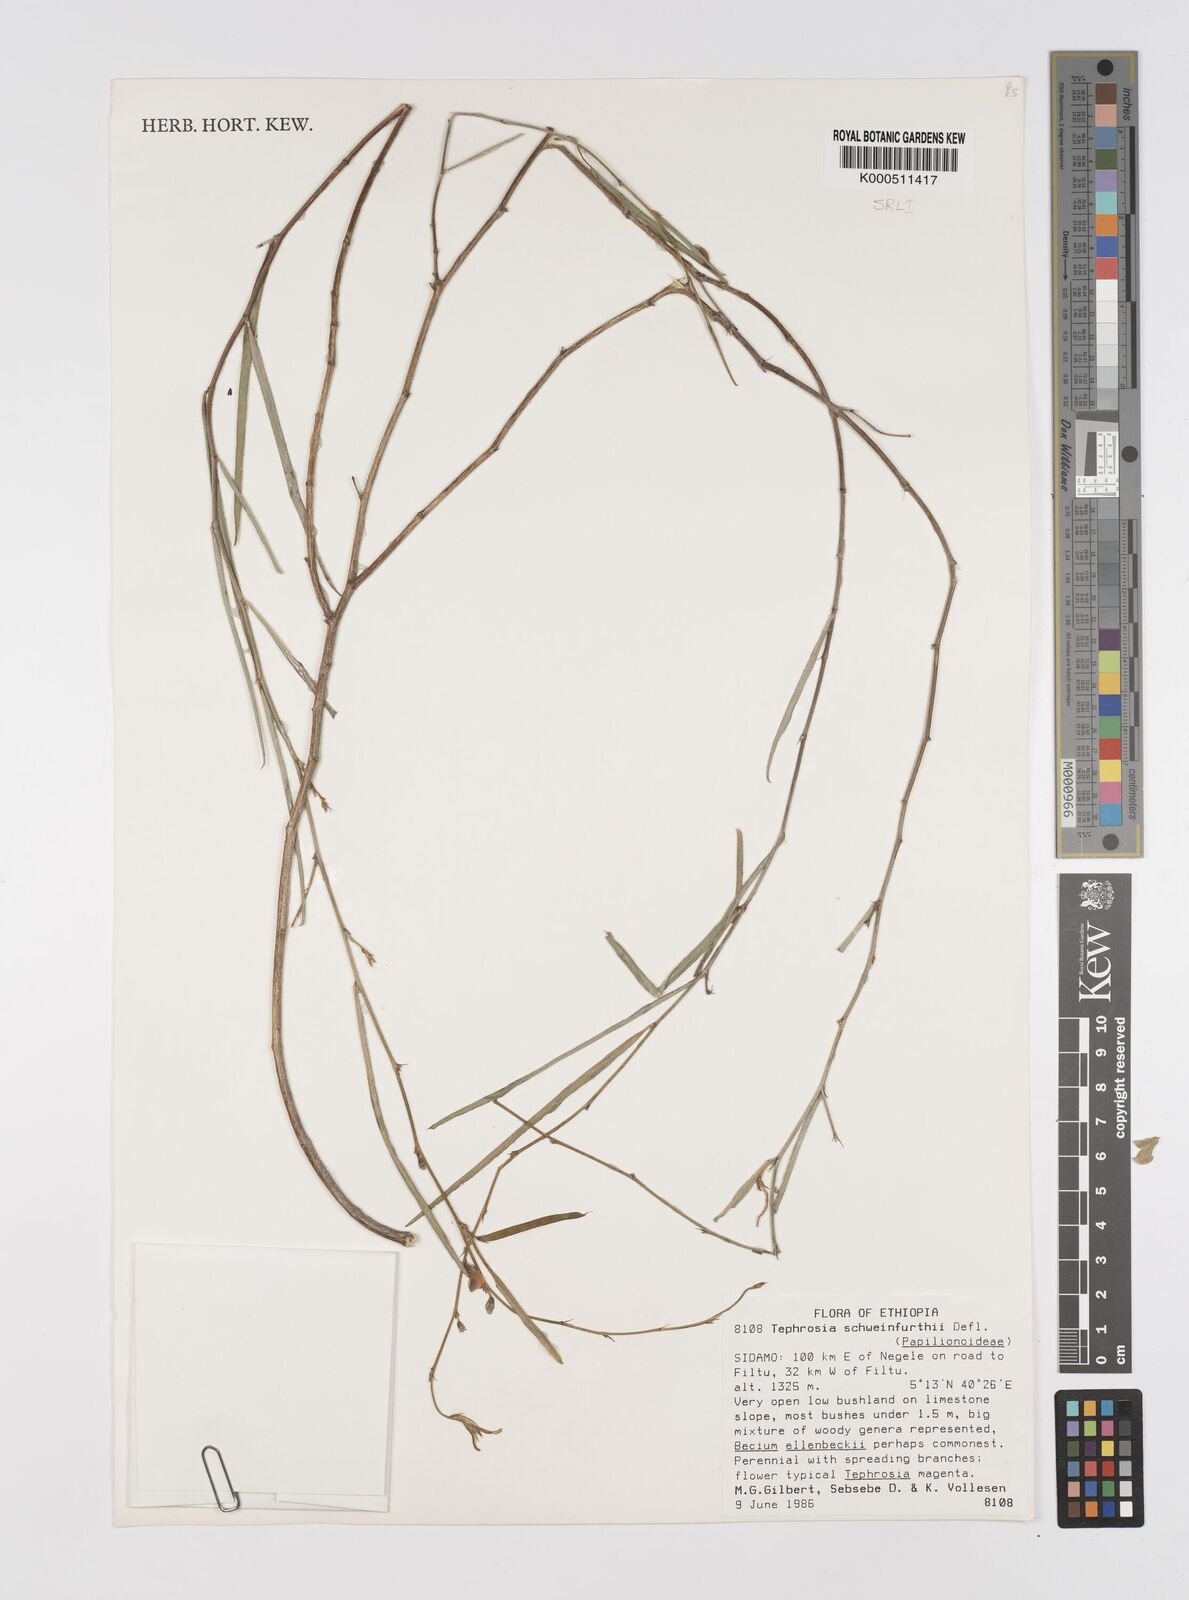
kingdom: Plantae
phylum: Tracheophyta
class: Magnoliopsida
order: Fabales
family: Fabaceae
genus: Tephrosia
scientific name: Tephrosia heterophylla
